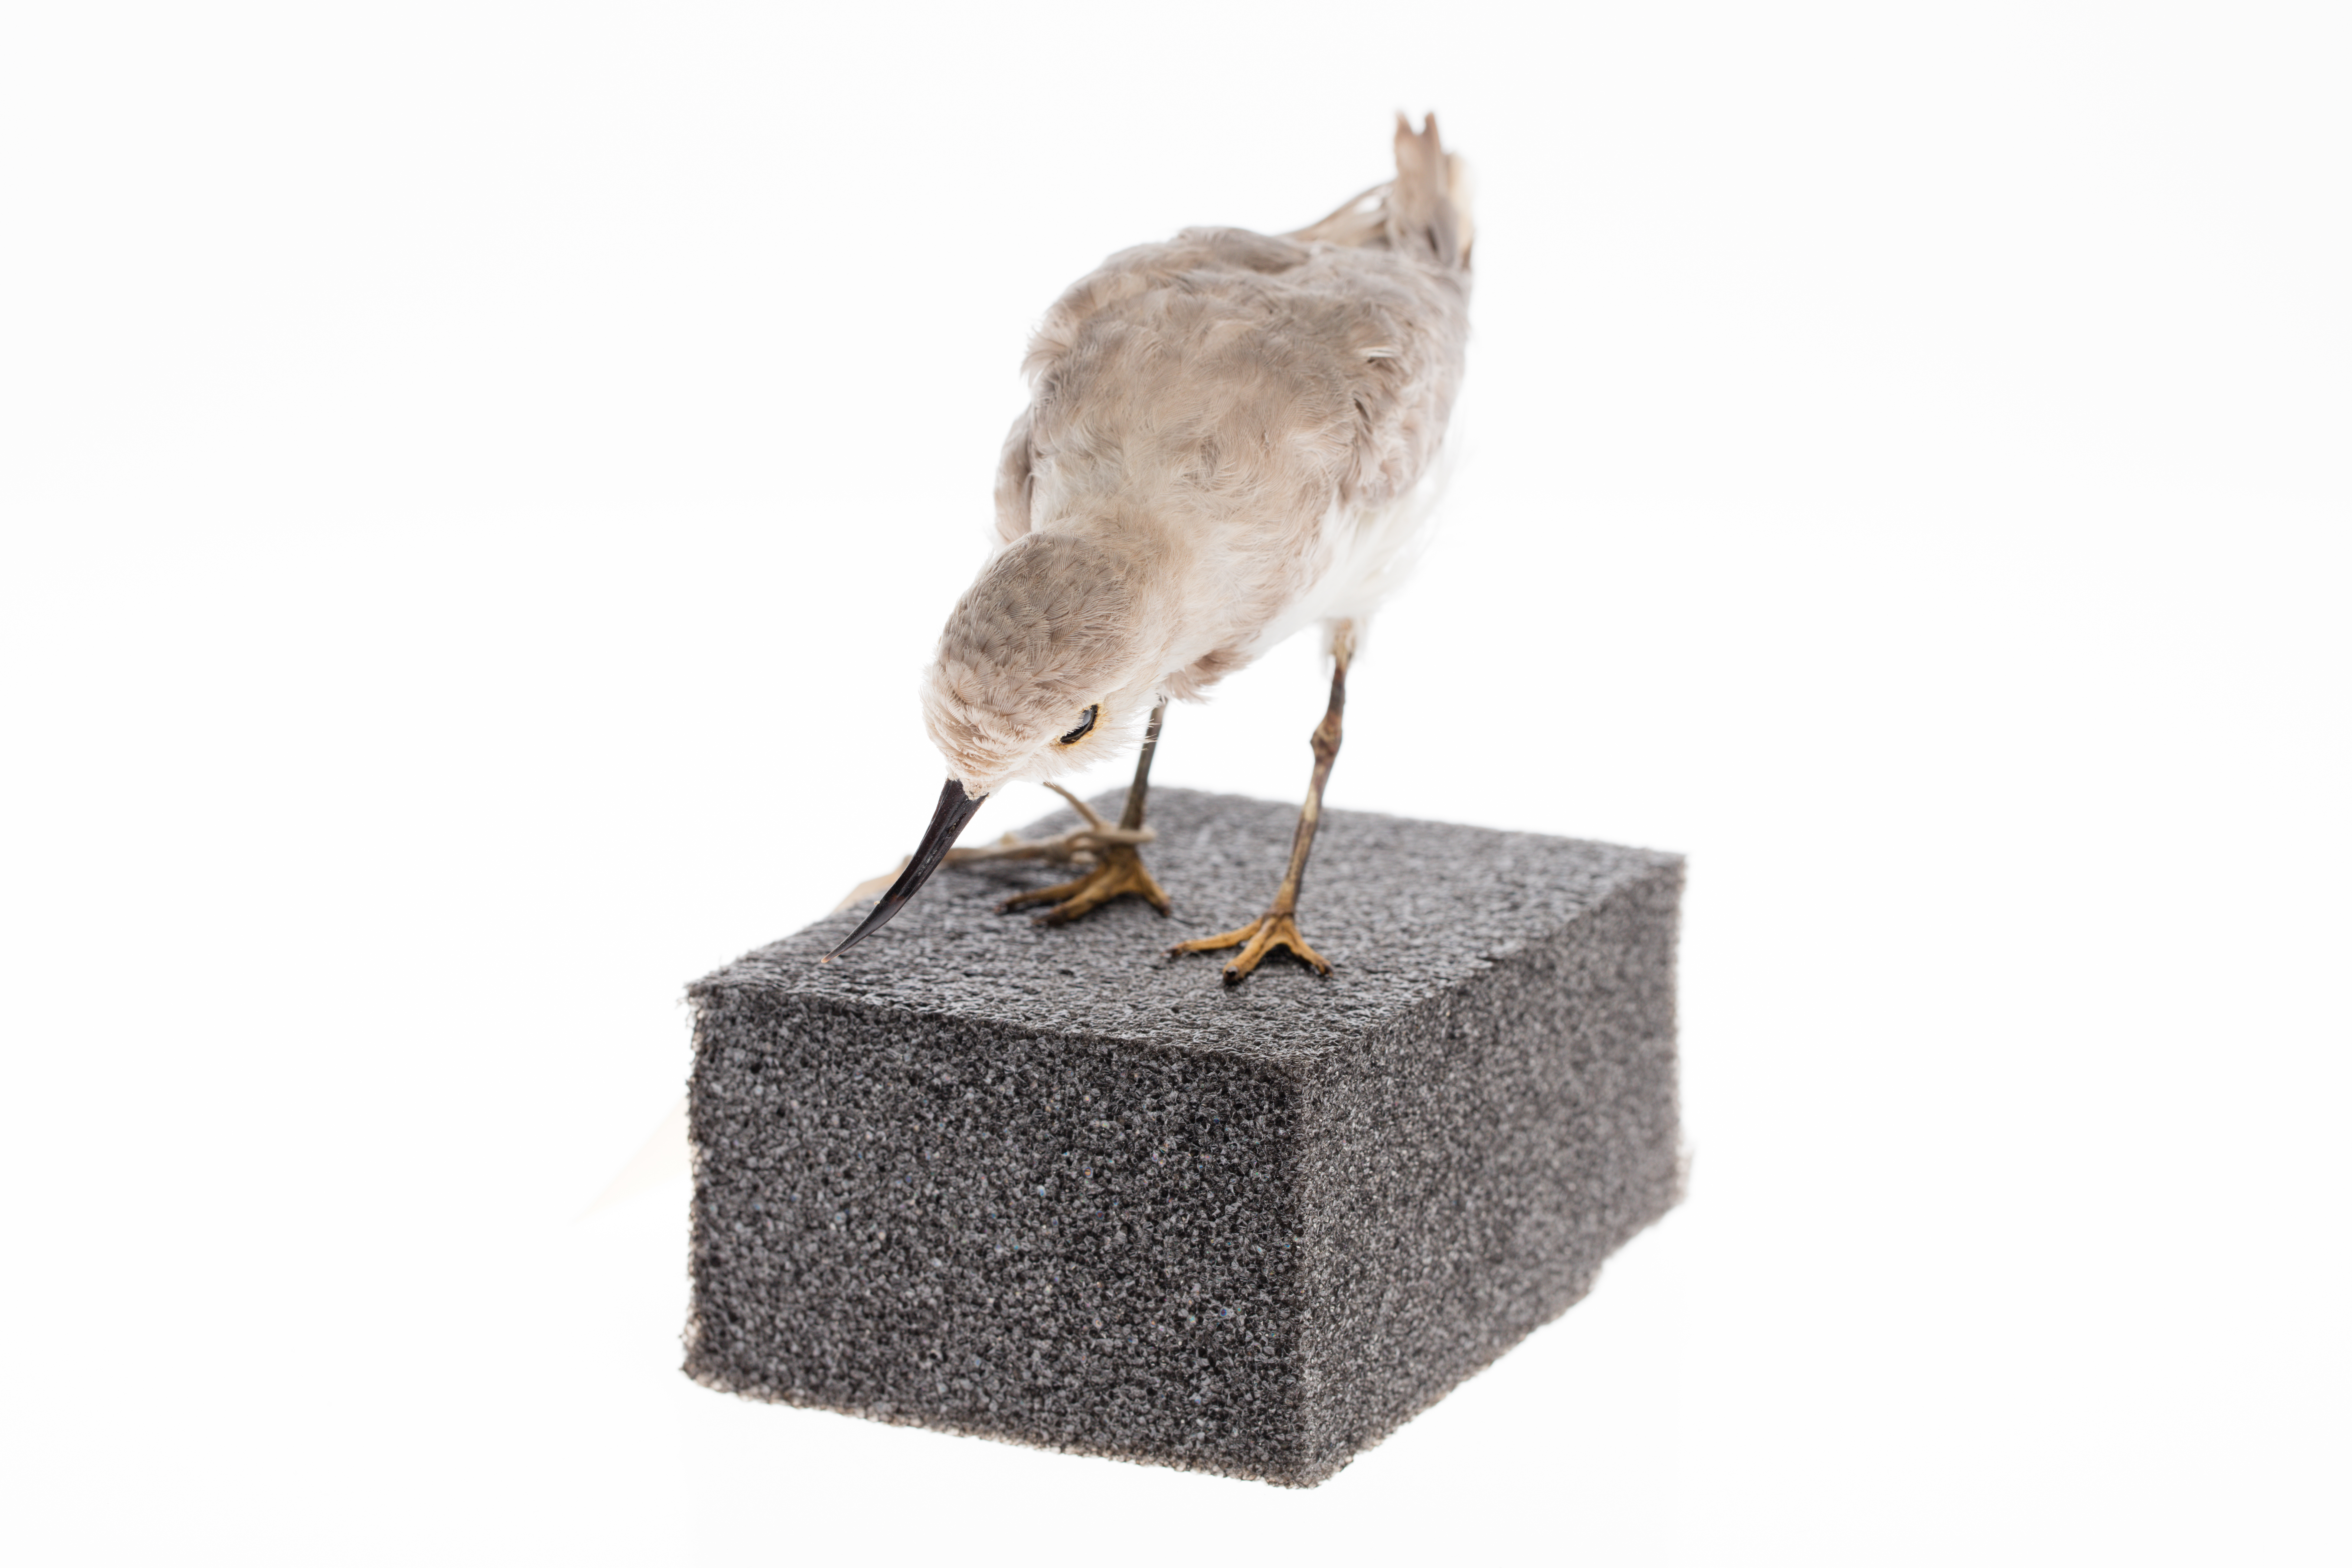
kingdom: Animalia
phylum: Chordata
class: Aves
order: Charadriiformes
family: Charadriidae
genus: Charadrius
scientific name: Charadrius frontalis
